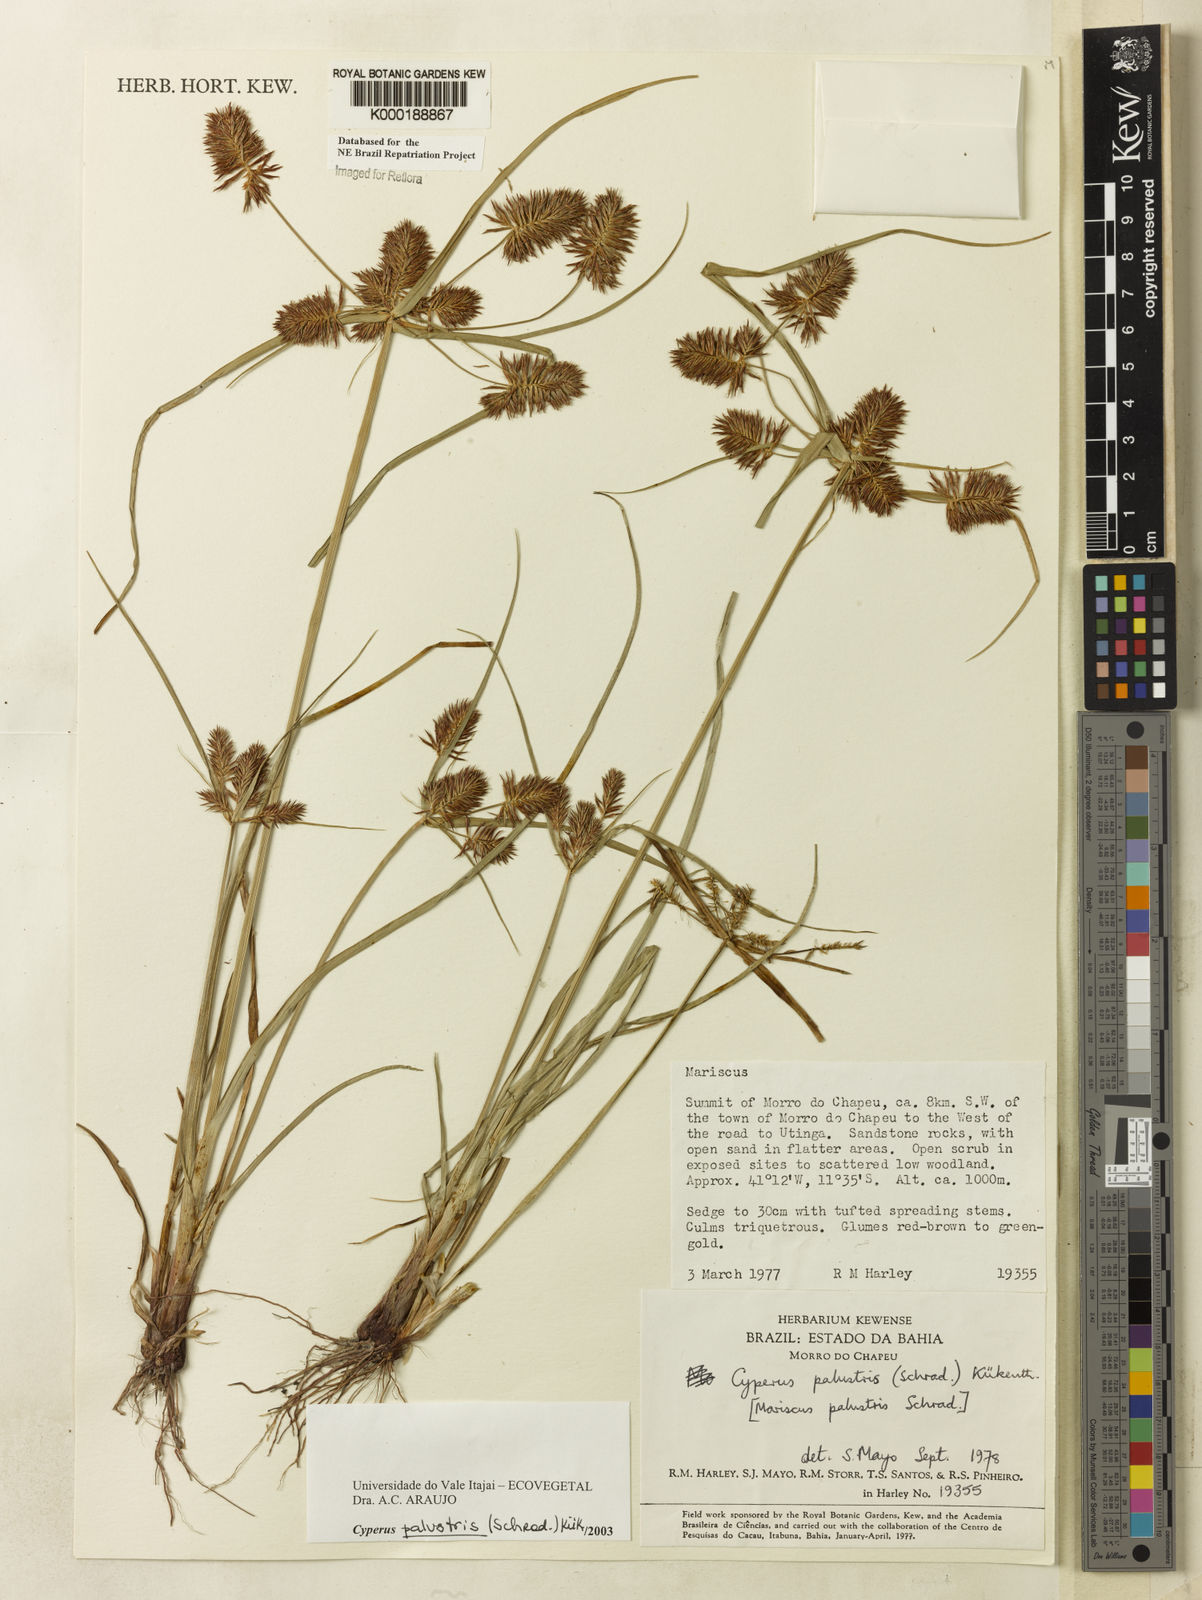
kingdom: Plantae
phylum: Tracheophyta
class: Liliopsida
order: Poales
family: Cyperaceae
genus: Cyperus
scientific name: Cyperus meyerianus
